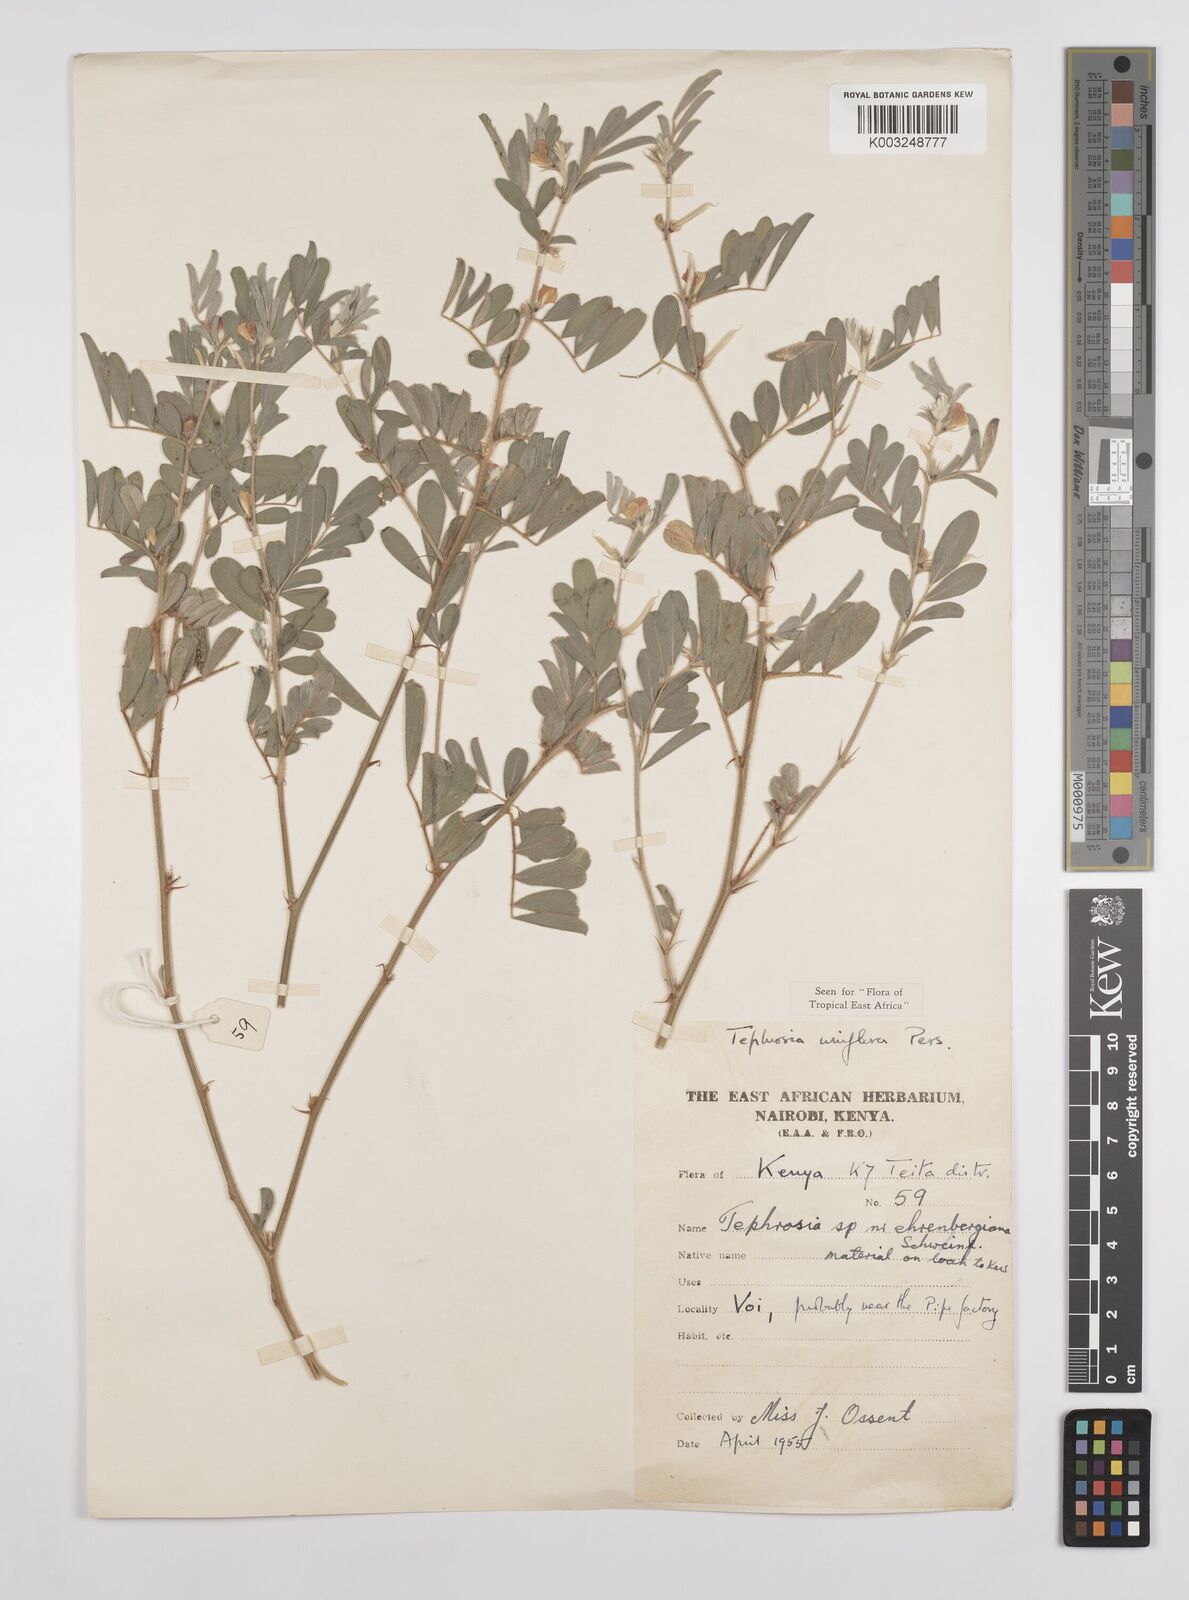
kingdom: Plantae
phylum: Tracheophyta
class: Magnoliopsida
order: Fabales
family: Fabaceae
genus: Tephrosia
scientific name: Tephrosia uniflora
